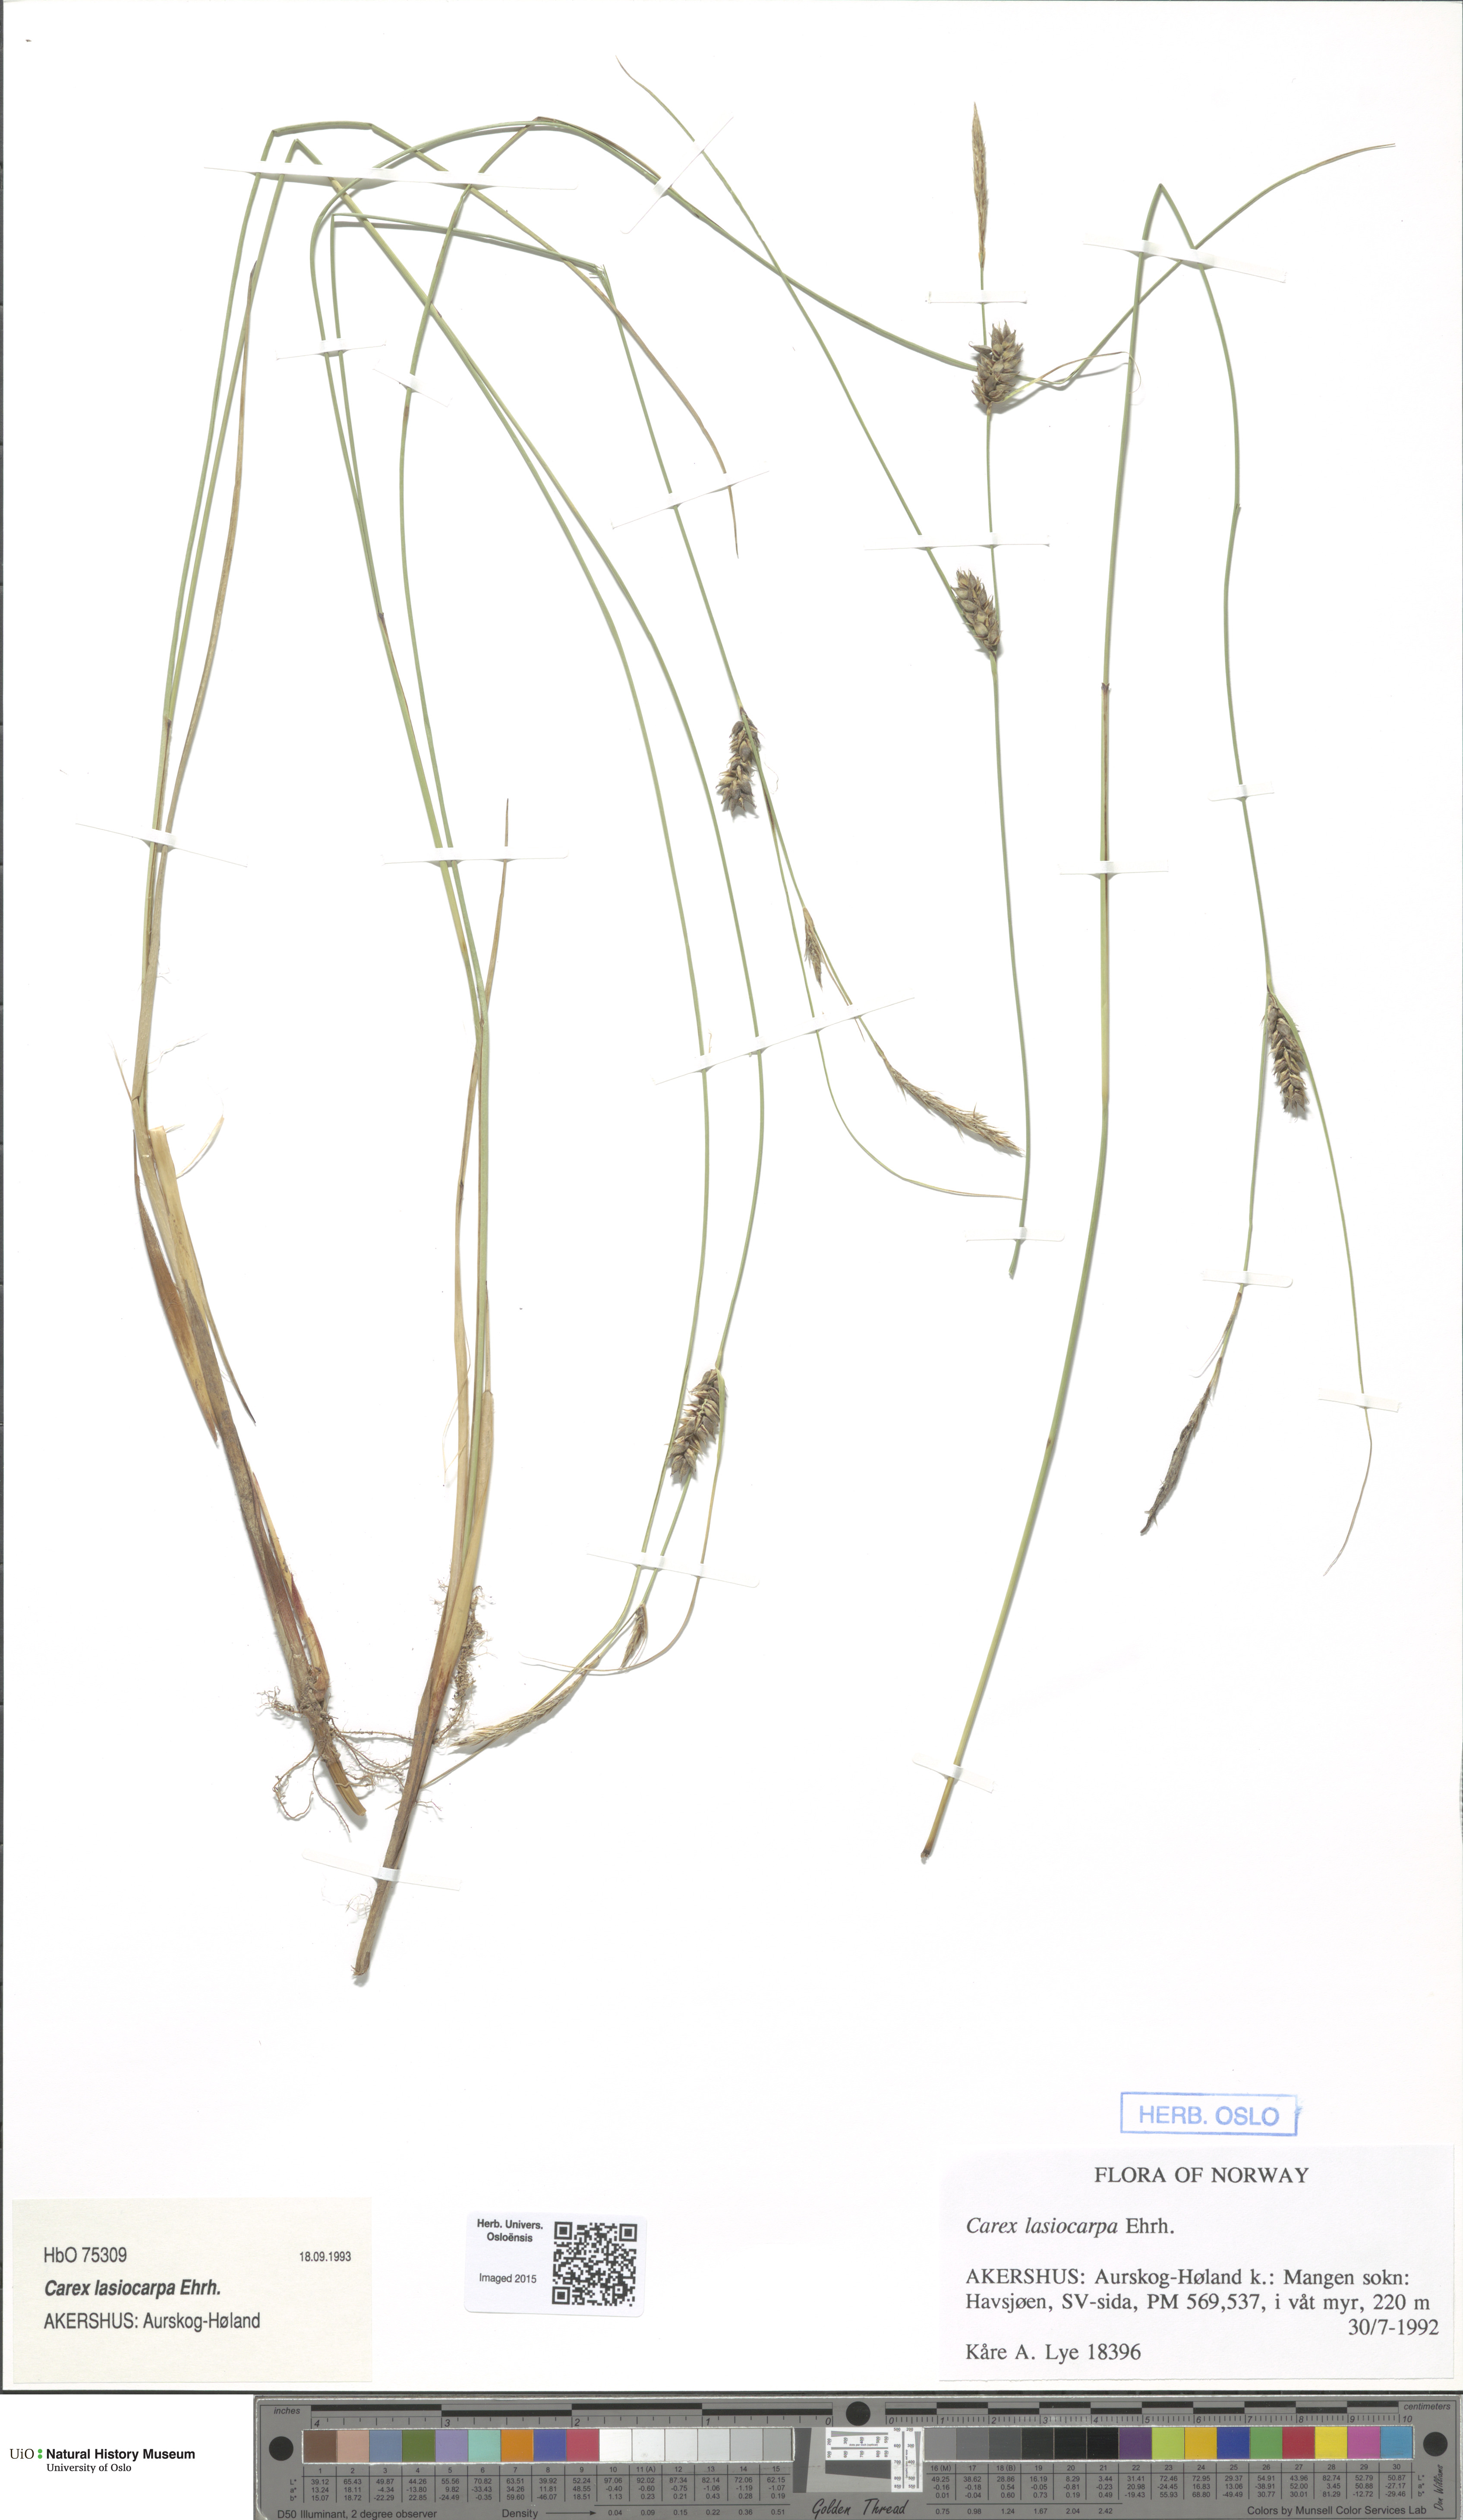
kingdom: Plantae
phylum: Tracheophyta
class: Liliopsida
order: Poales
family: Cyperaceae
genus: Carex
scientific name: Carex lasiocarpa
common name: Slender sedge
